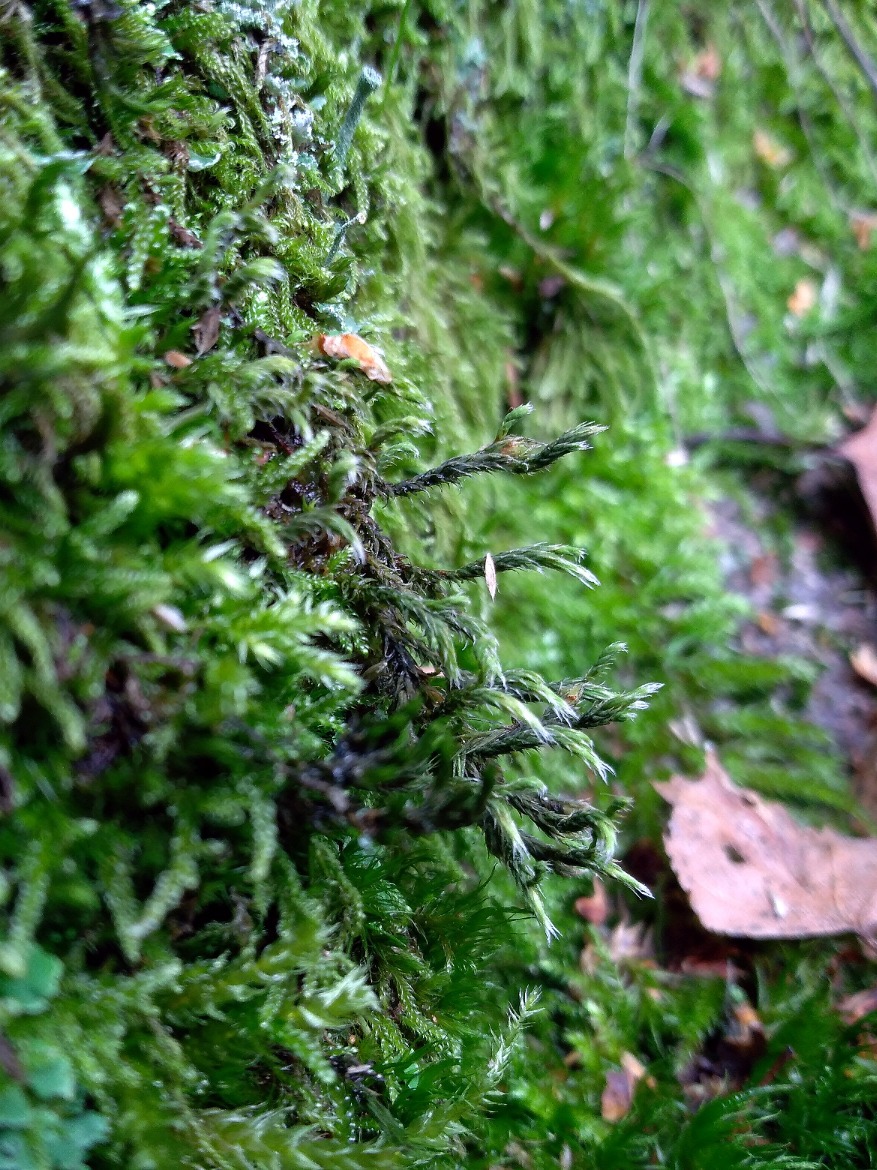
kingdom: Plantae
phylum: Bryophyta
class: Bryopsida
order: Hedwigiales
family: Hedwigiaceae
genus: Hedwigia
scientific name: Hedwigia ciliata
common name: Hvidspidset hedwigia
